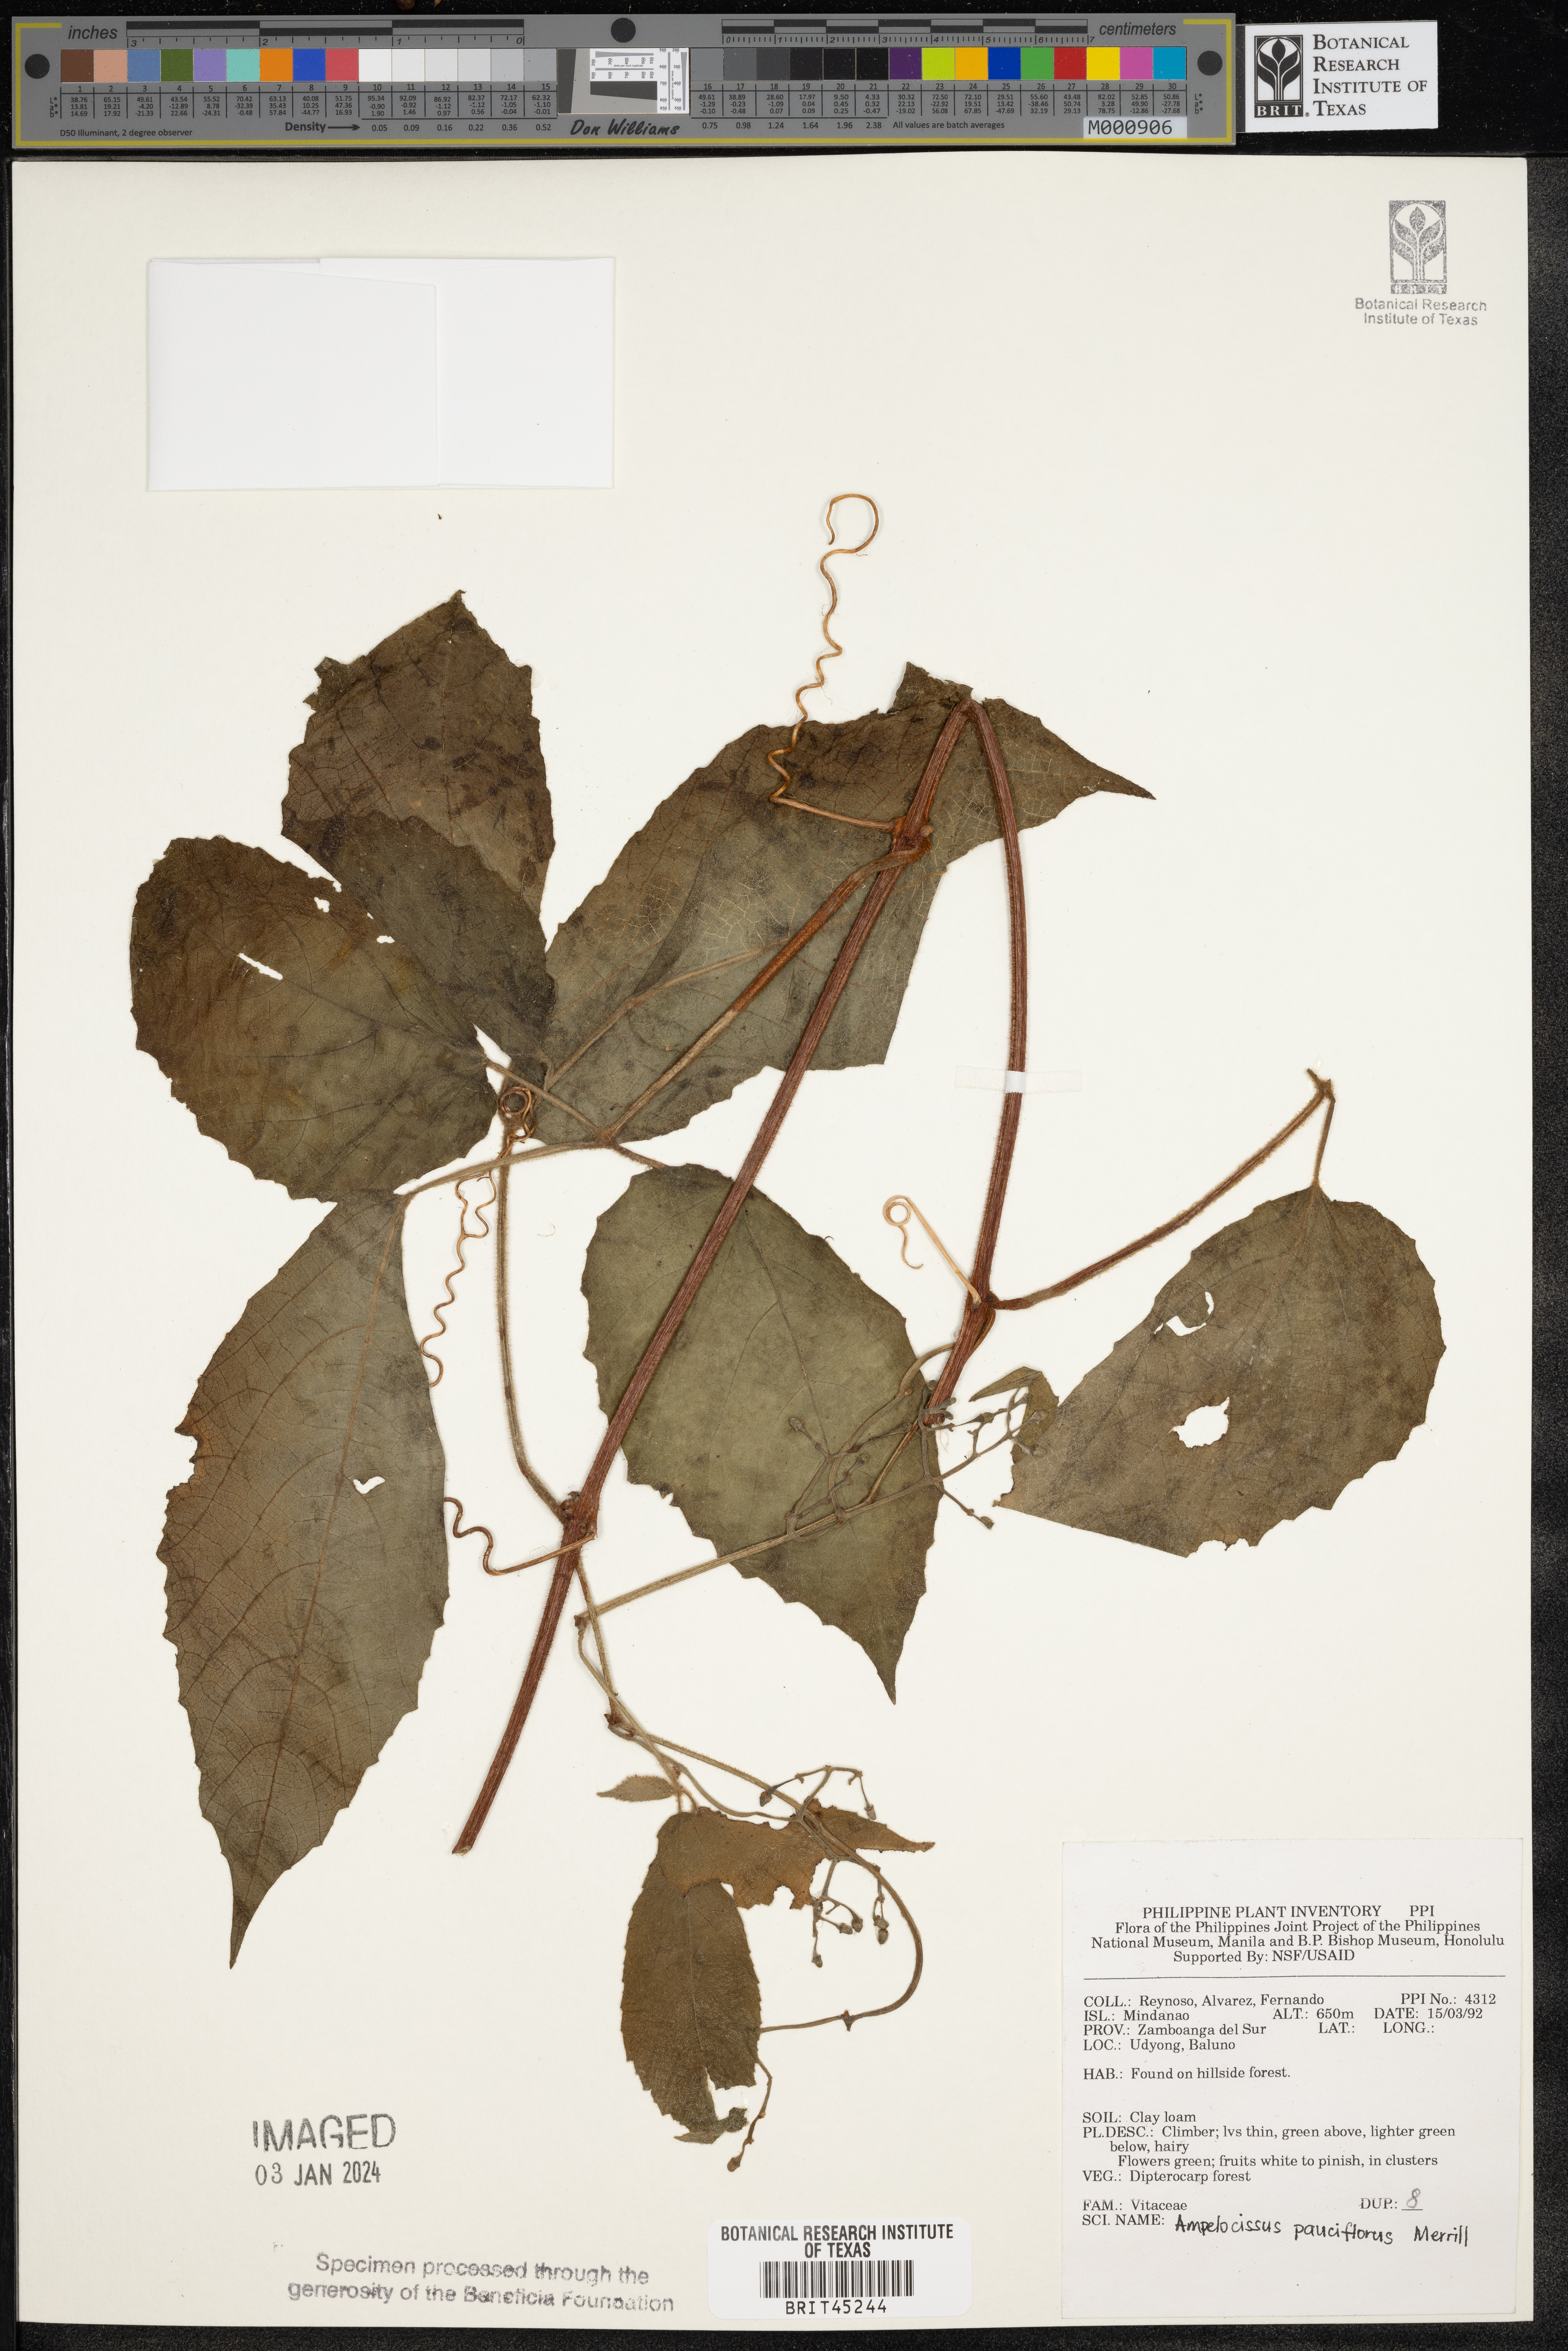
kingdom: Plantae
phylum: Tracheophyta
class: Magnoliopsida
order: Vitales
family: Vitaceae
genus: Ampelocissus
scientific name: Ampelocissus pauciflora
